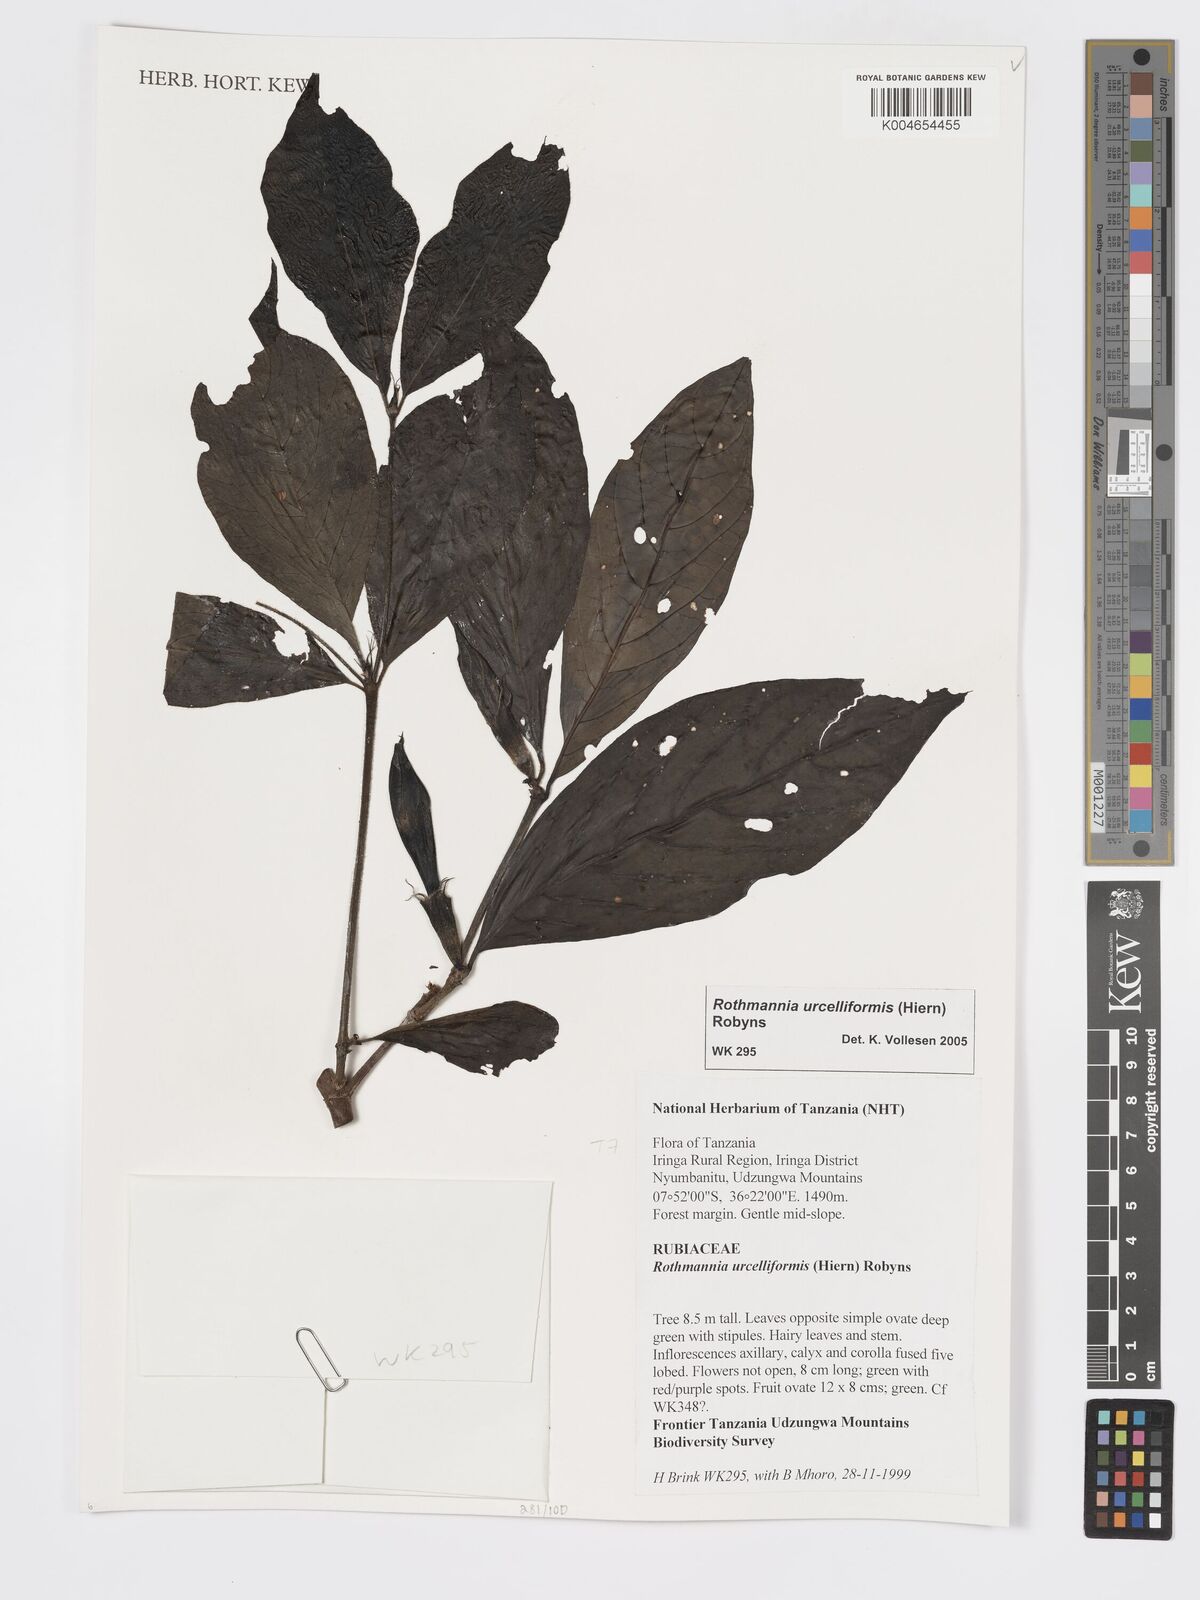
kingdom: Plantae
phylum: Tracheophyta
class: Magnoliopsida
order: Gentianales
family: Rubiaceae
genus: Rothmannia
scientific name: Rothmannia urcelliformis
